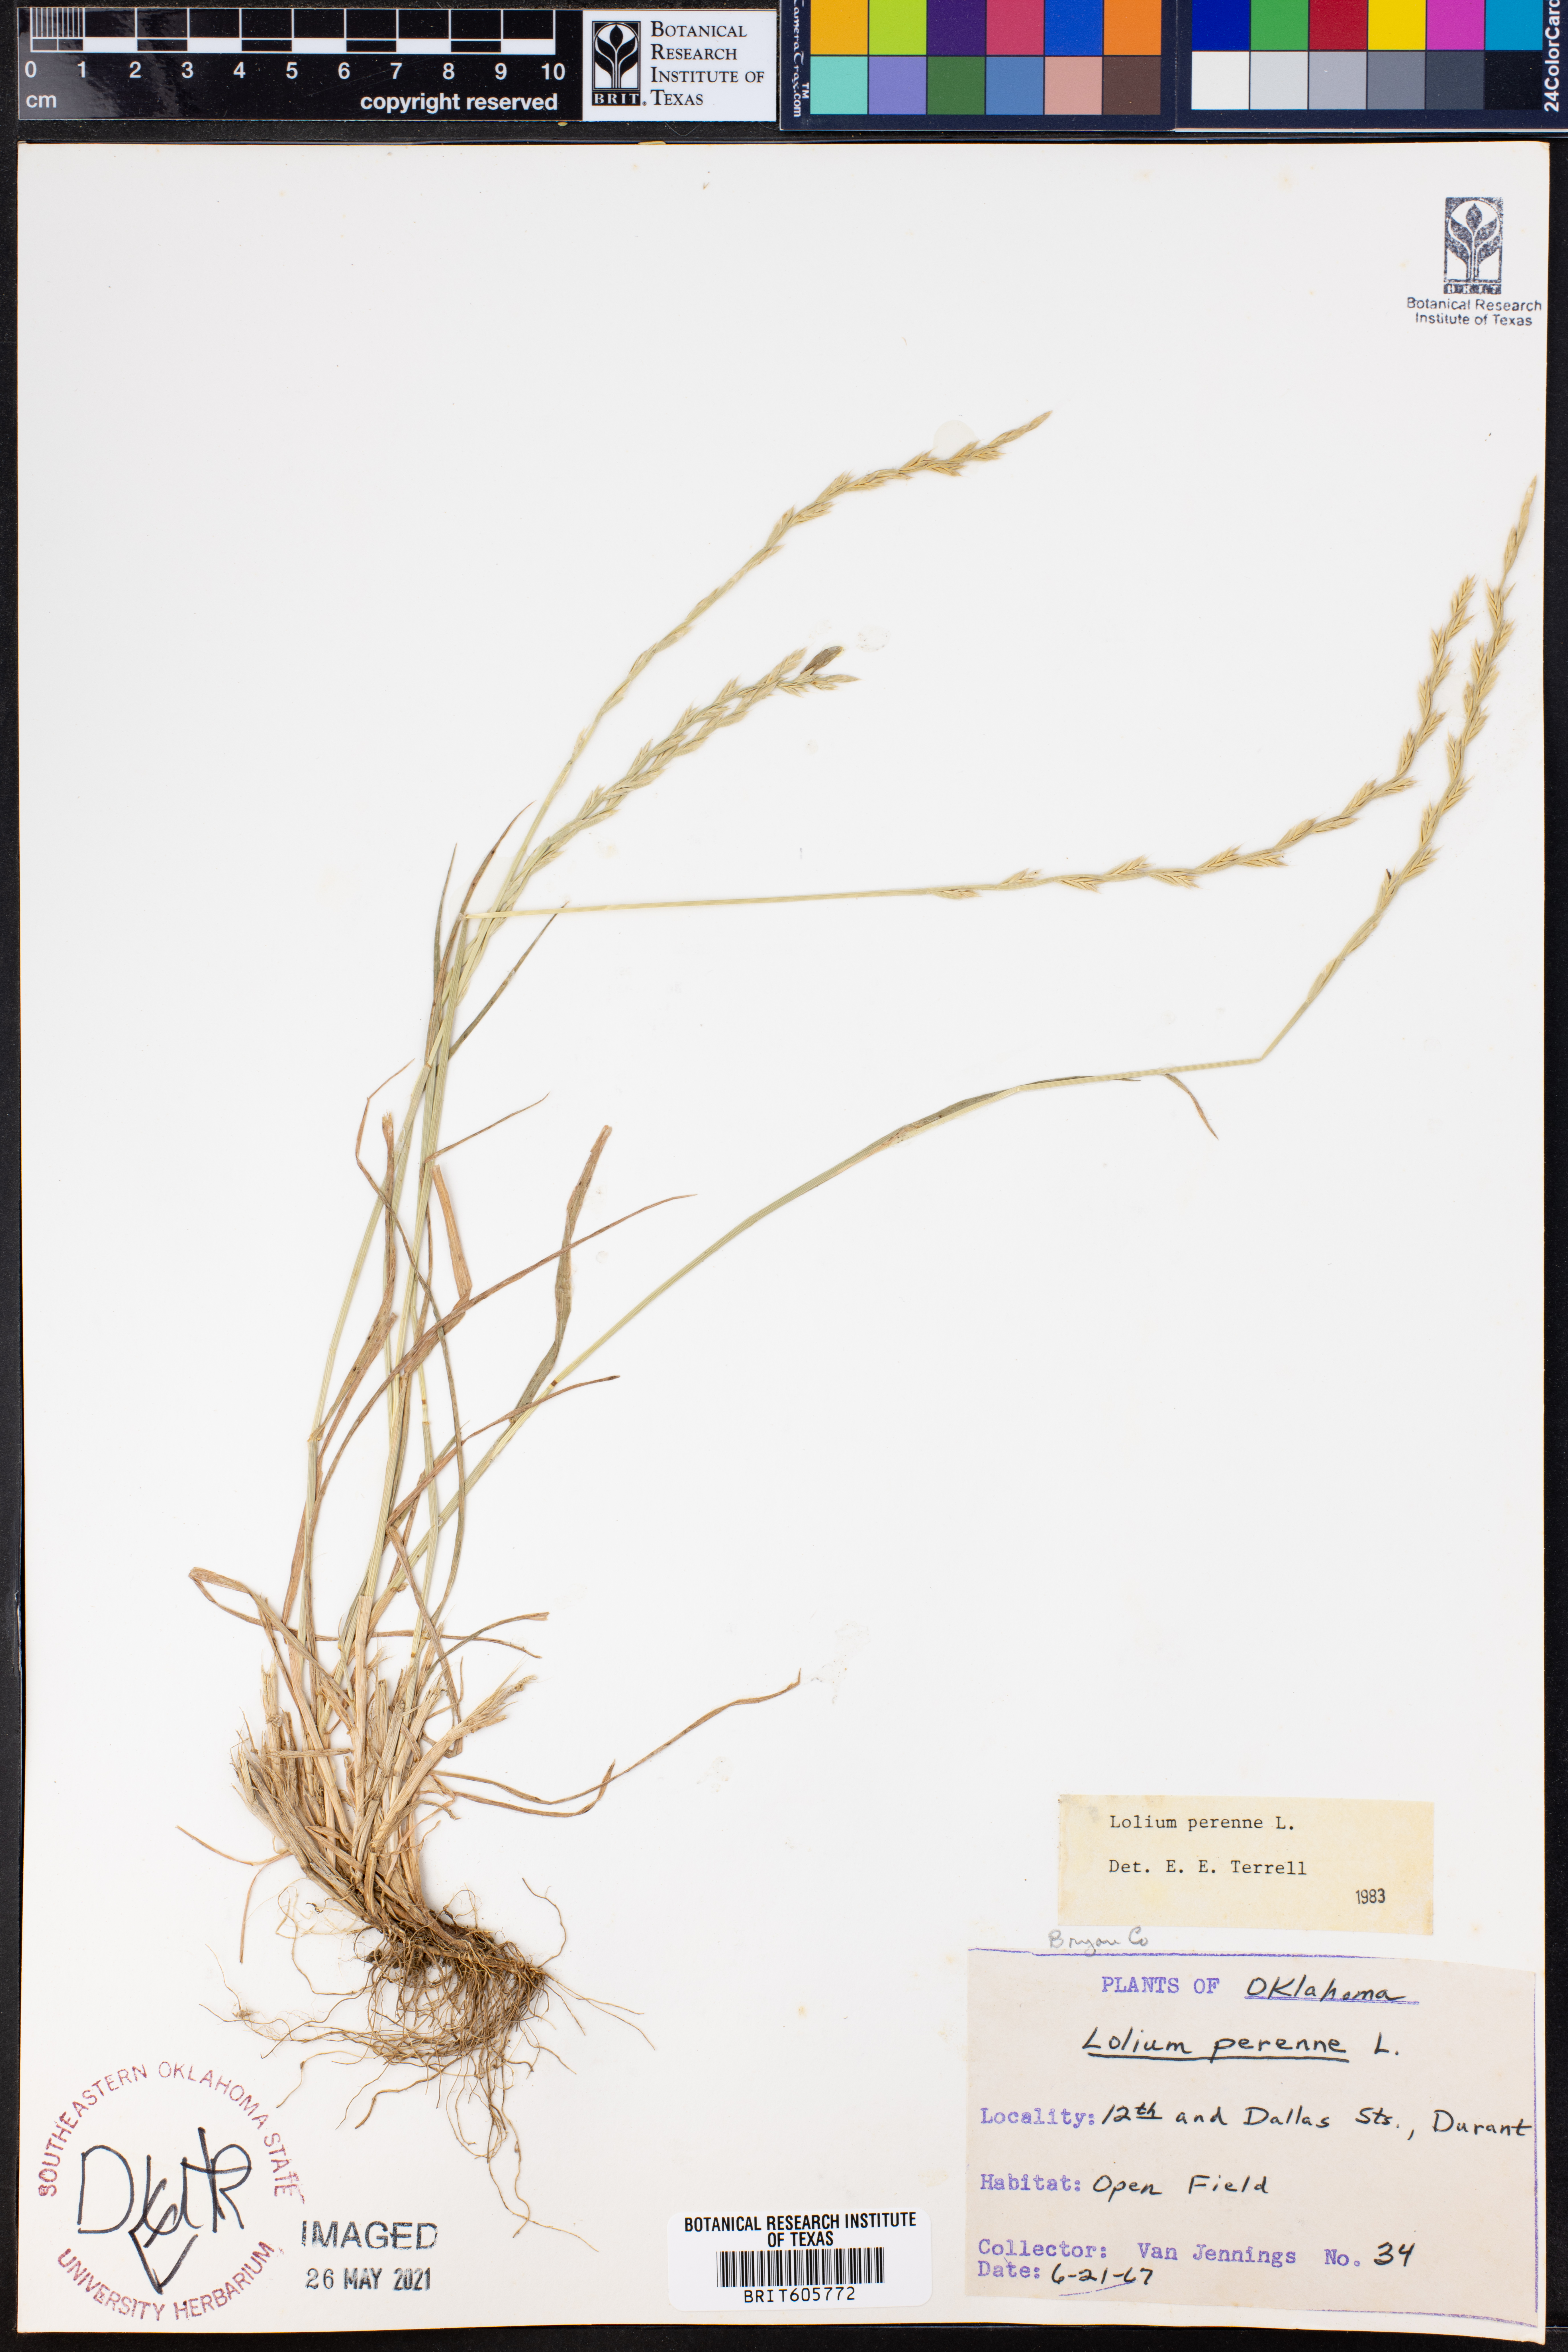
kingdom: Plantae
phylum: Tracheophyta
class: Liliopsida
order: Poales
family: Poaceae
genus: Lolium
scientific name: Lolium perenne
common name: Perennial ryegrass
